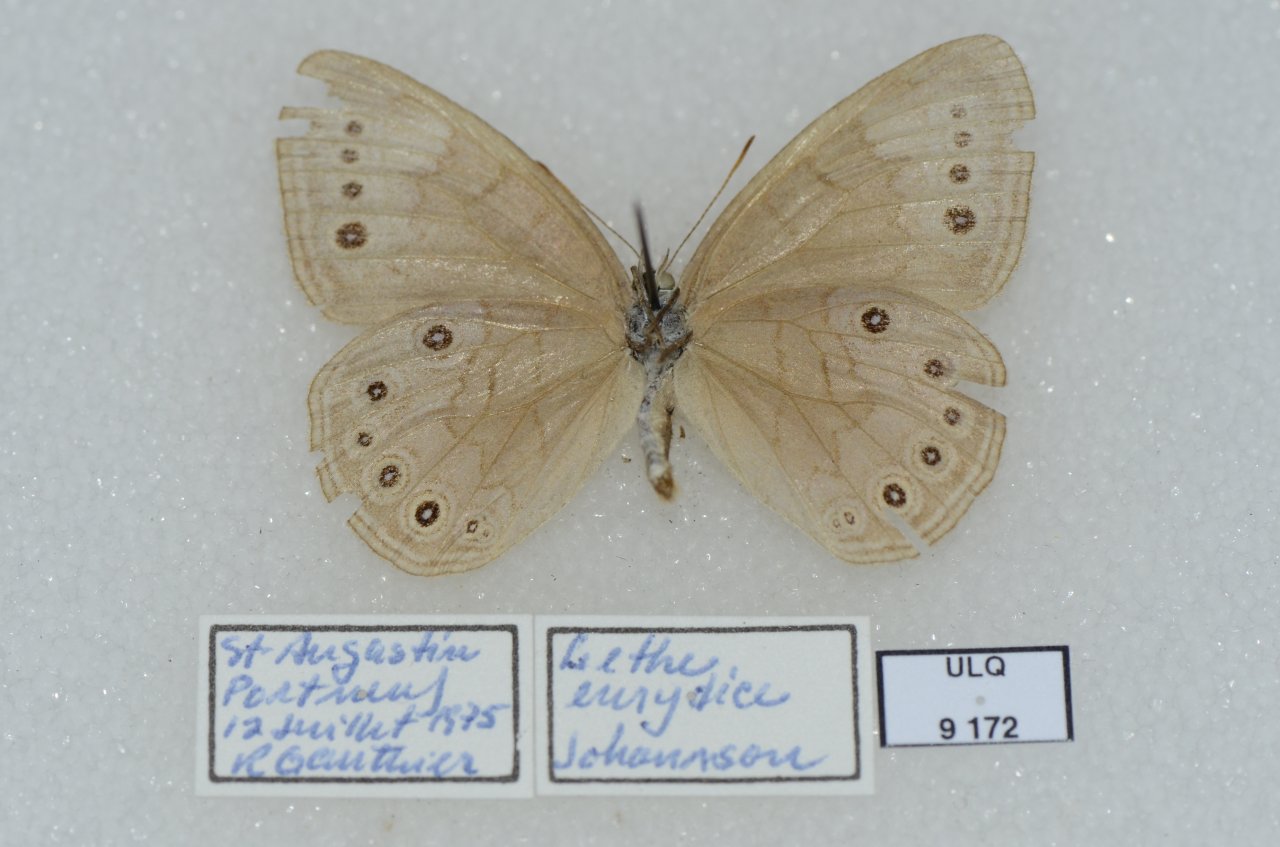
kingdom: Animalia
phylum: Arthropoda
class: Insecta
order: Lepidoptera
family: Nymphalidae
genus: Lethe
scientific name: Lethe eurydice
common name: Eyed Brown
